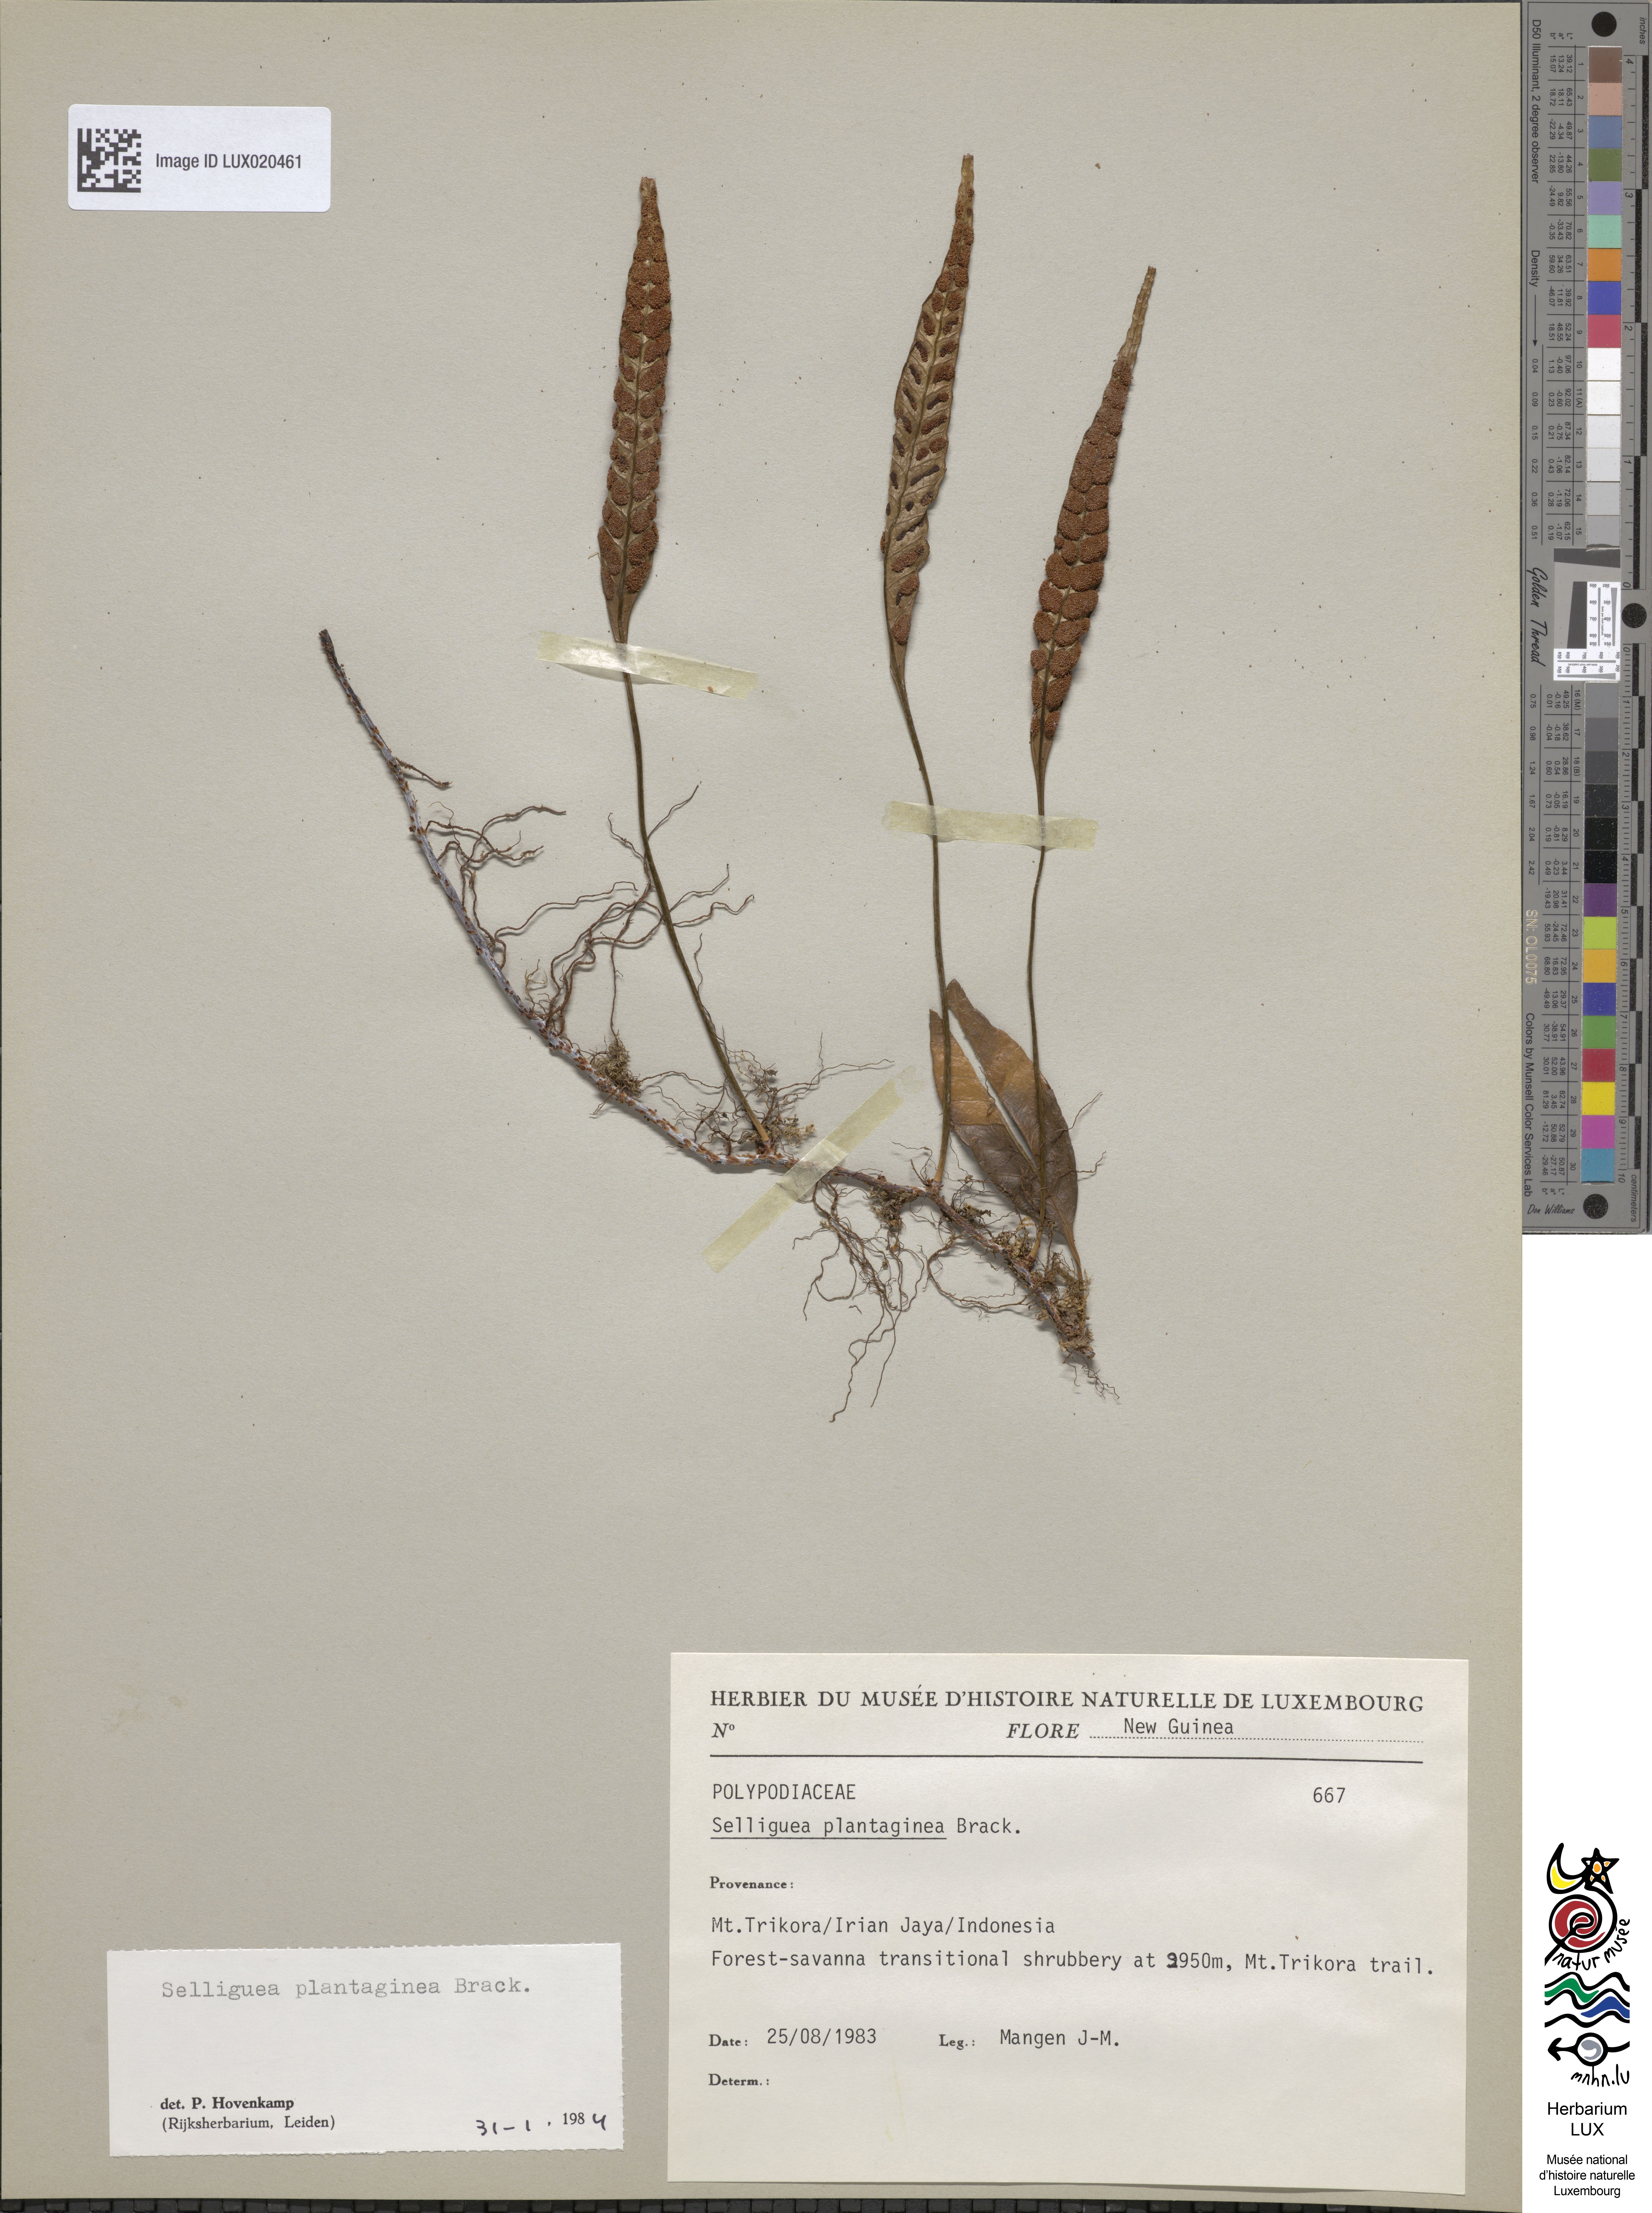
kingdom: Plantae
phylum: Tracheophyta
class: Polypodiopsida
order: Polypodiales
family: Polypodiaceae
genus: Selliguea
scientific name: Selliguea plantaginea
